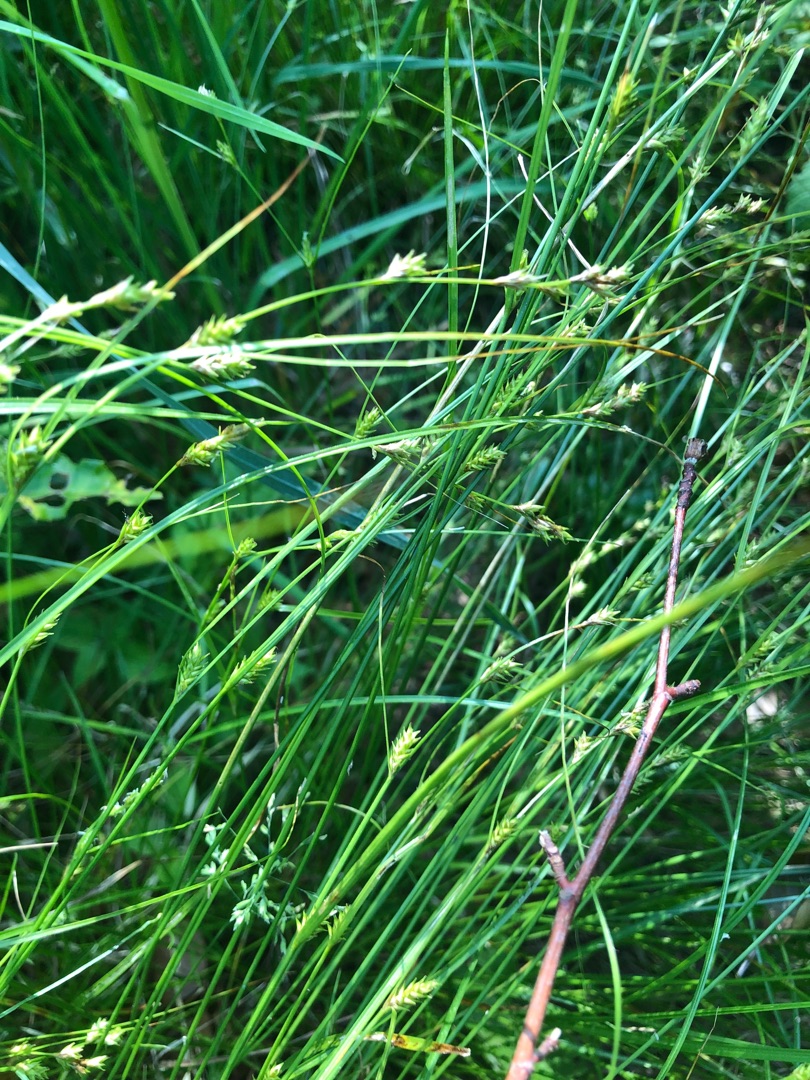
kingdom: Plantae
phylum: Tracheophyta
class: Liliopsida
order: Poales
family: Cyperaceae
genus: Carex
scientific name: Carex remota
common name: Akselblomstret star
